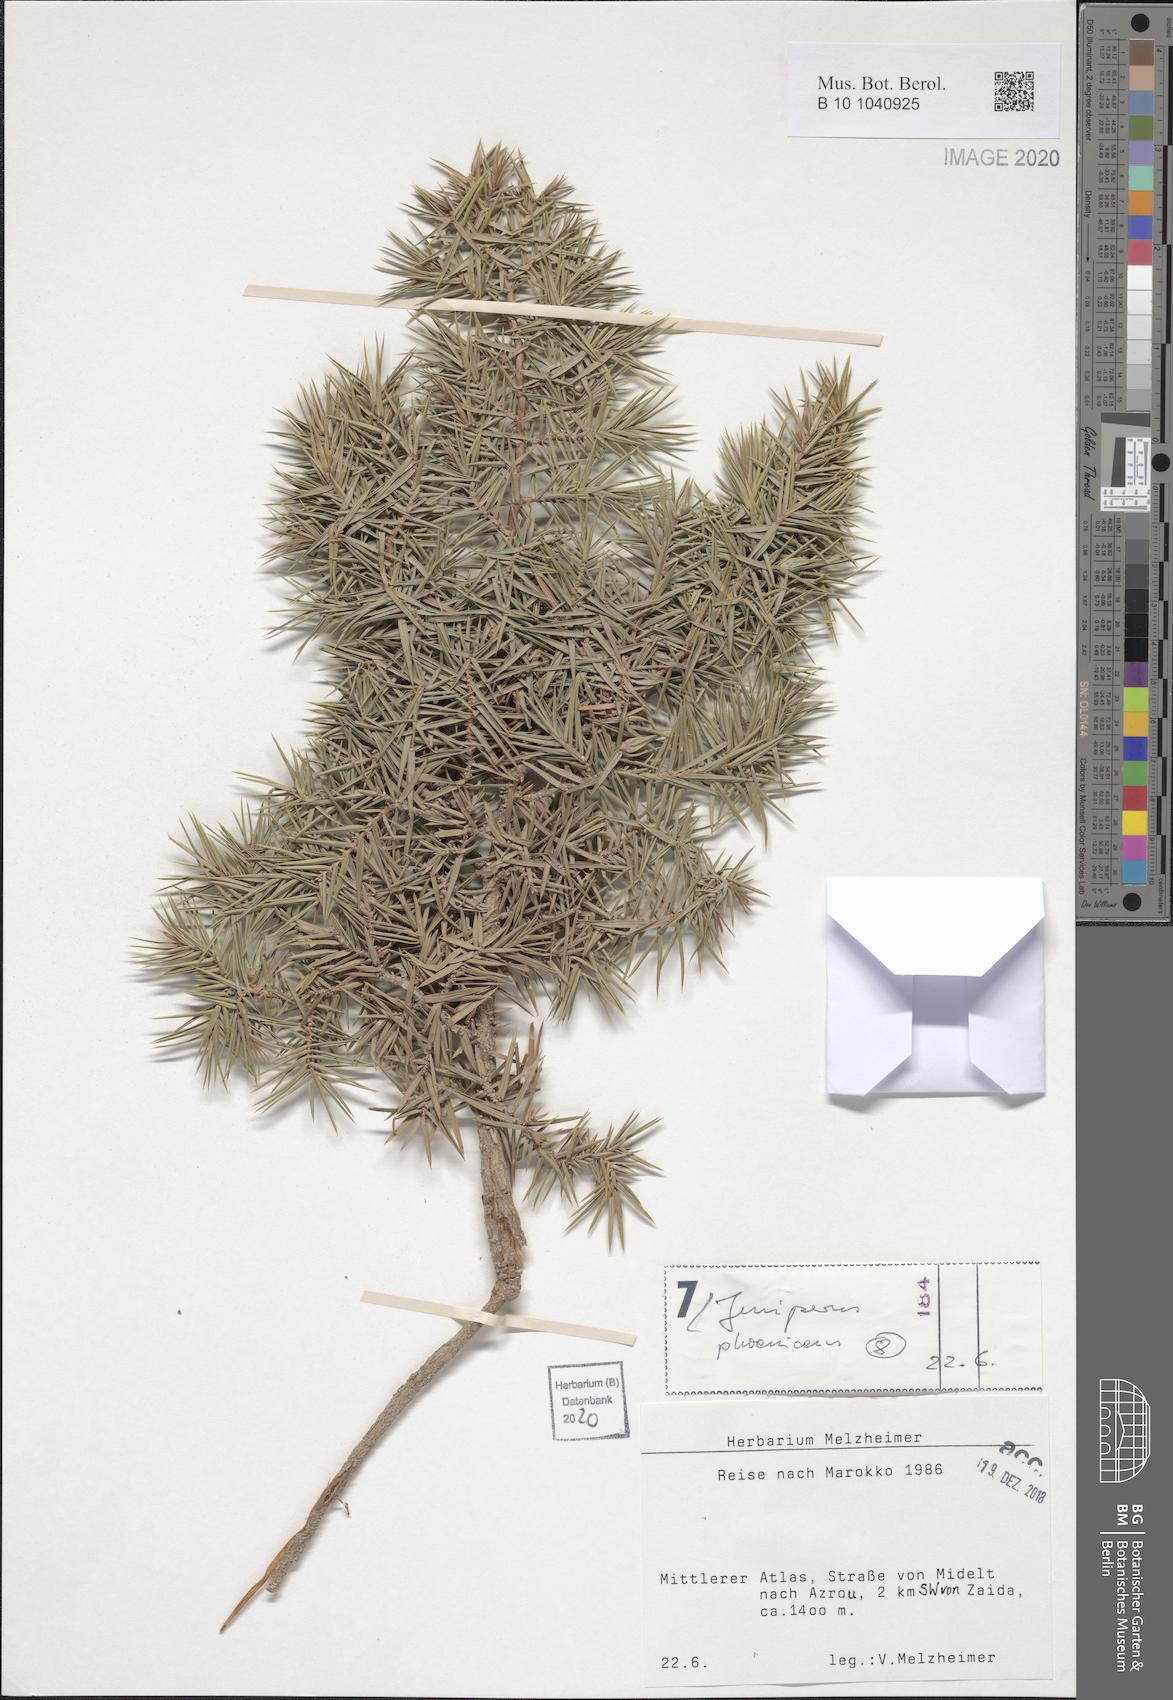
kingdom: Plantae
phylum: Tracheophyta
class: Pinopsida
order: Pinales
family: Cupressaceae
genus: Juniperus
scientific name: Juniperus phoenicea
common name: Phoenician juniper
